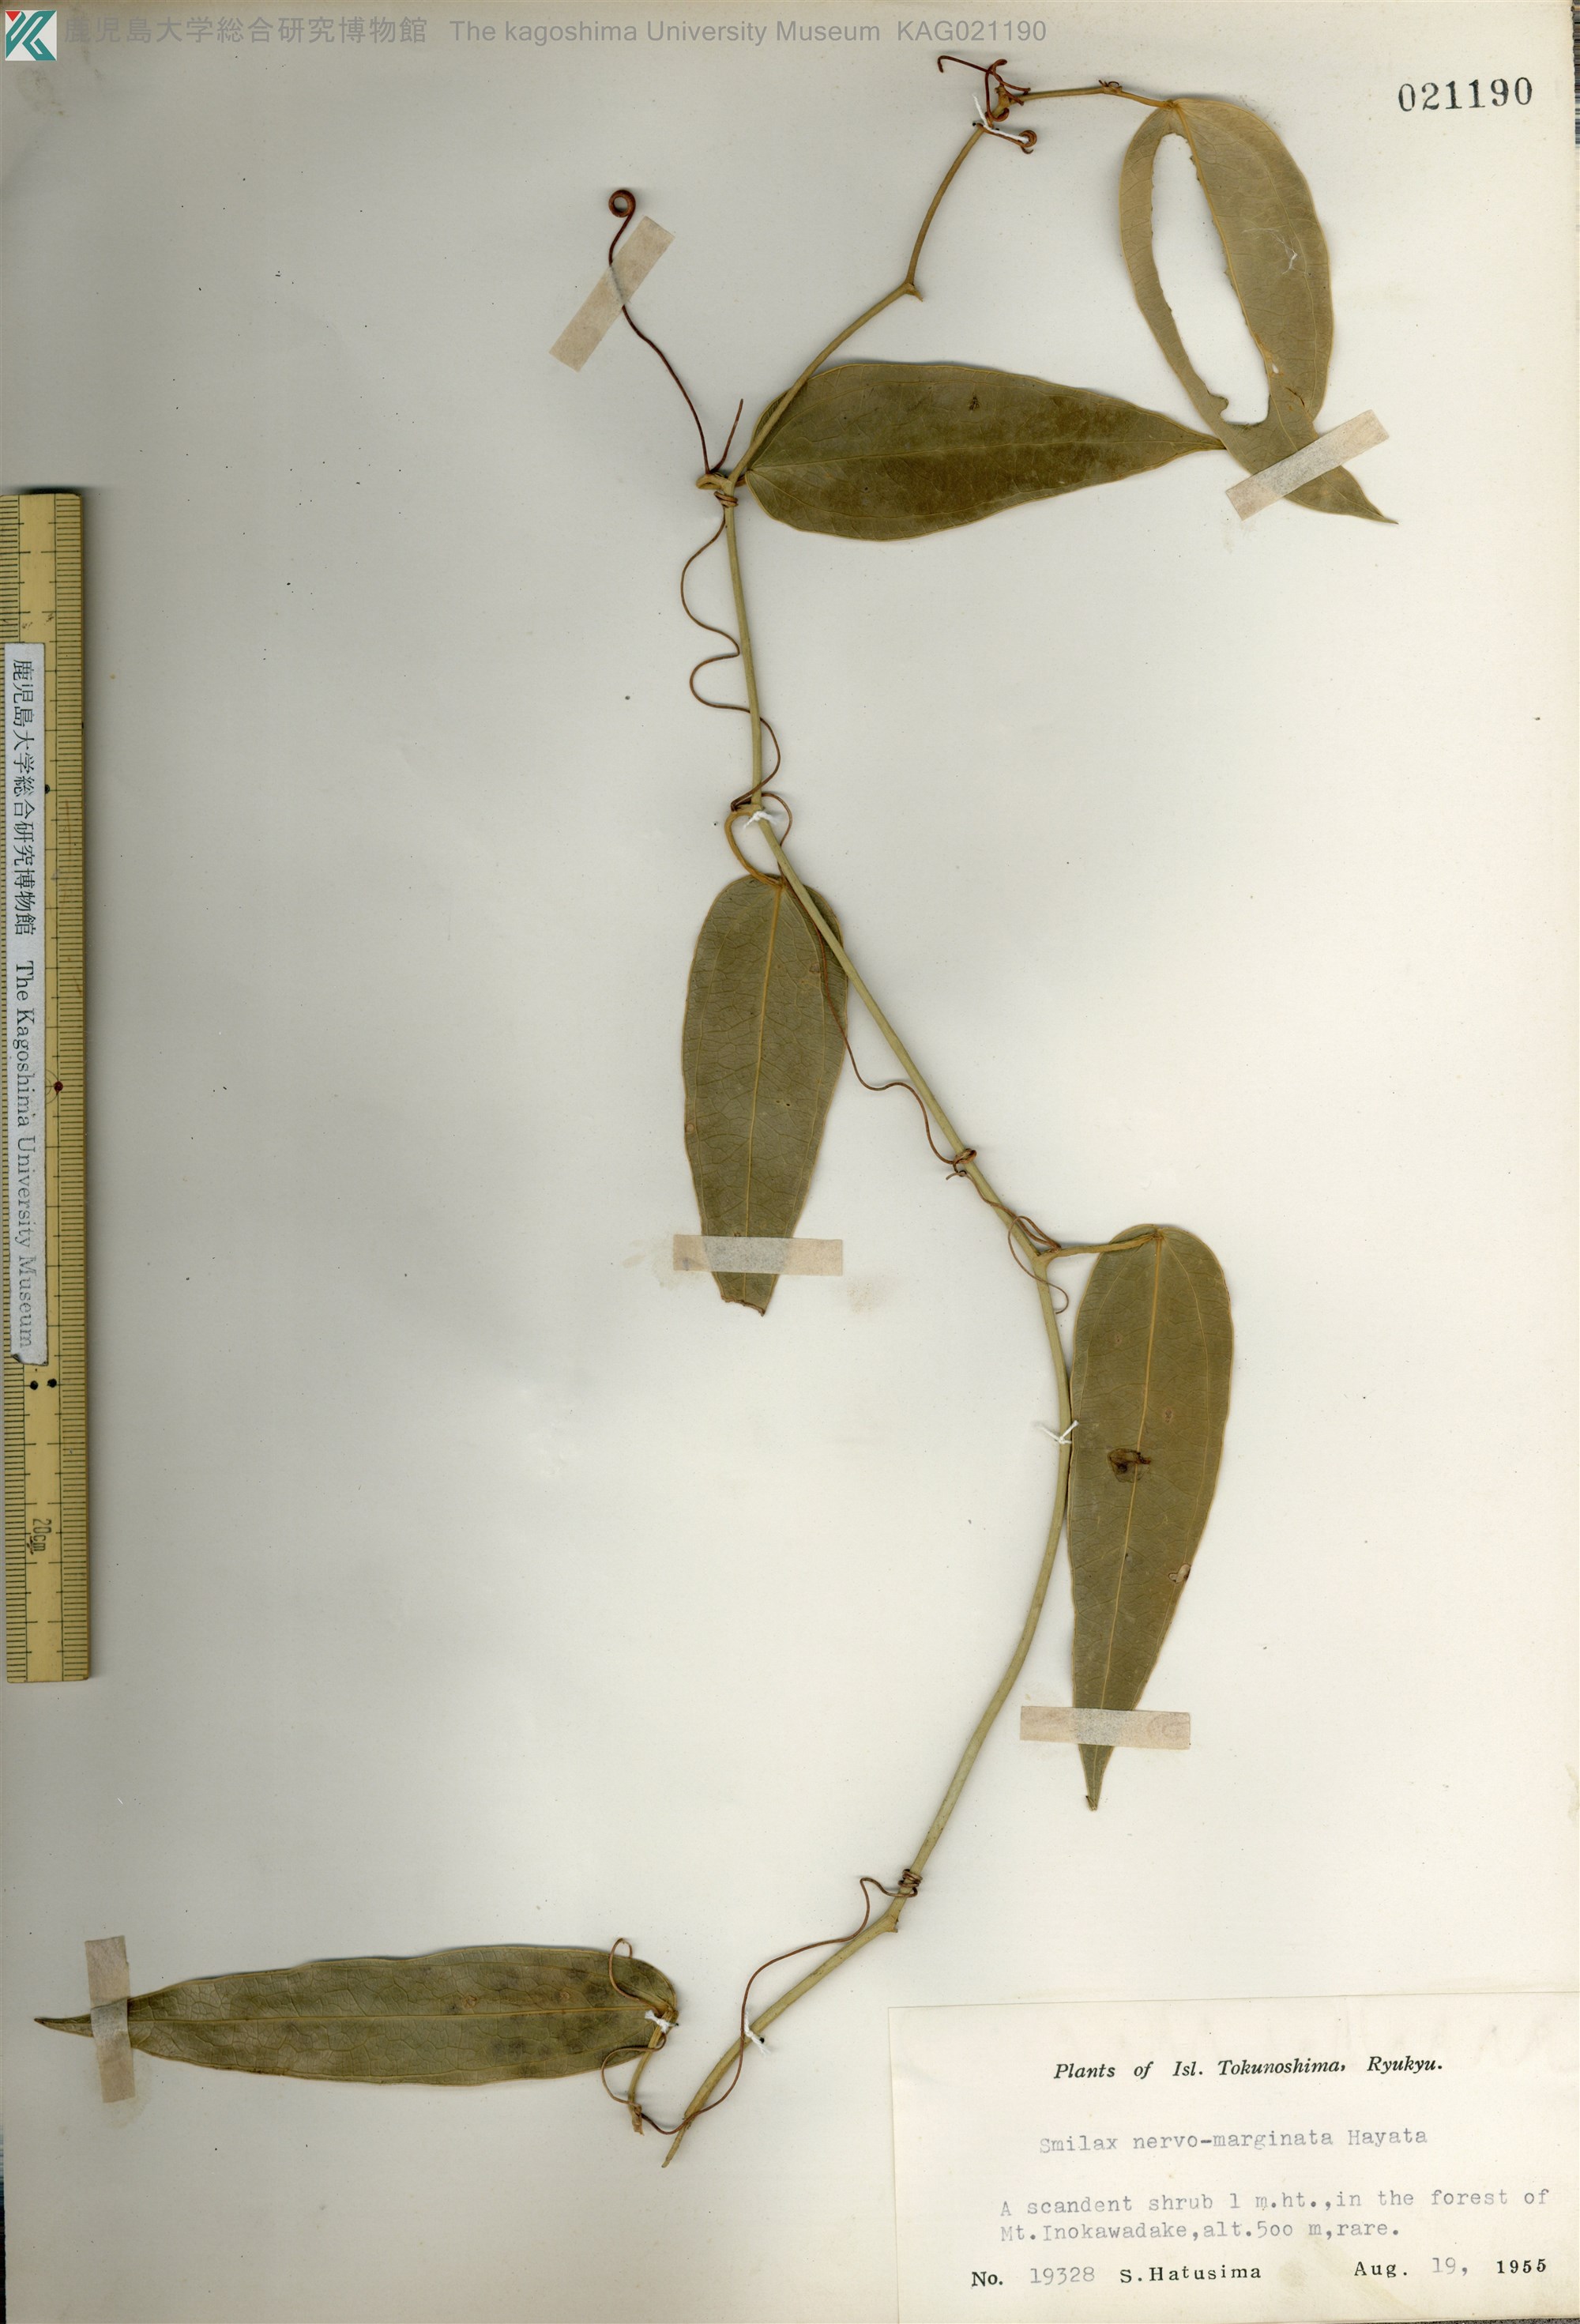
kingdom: Plantae
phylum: Tracheophyta
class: Liliopsida
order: Liliales
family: Smilacaceae
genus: Smilax
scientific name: Smilax nervomarginata
